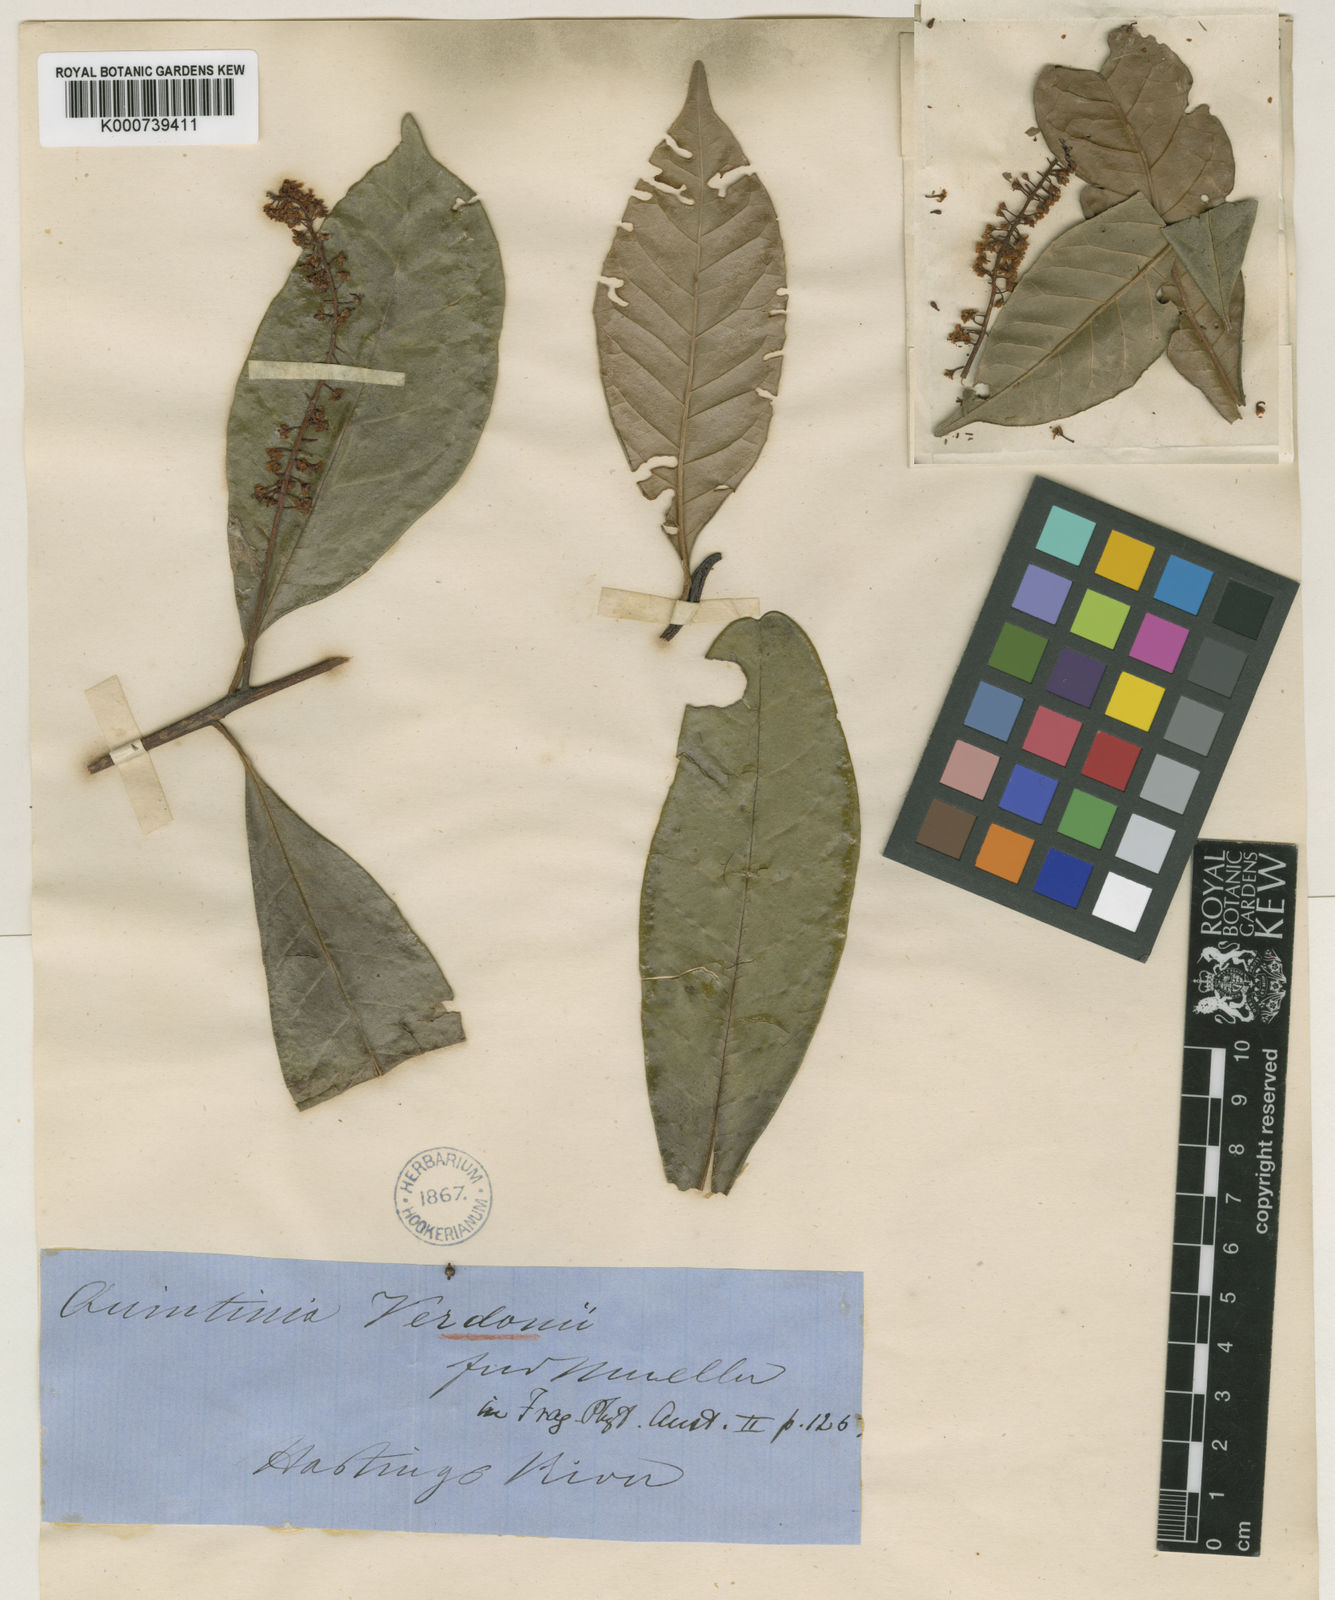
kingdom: Plantae
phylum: Tracheophyta
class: Magnoliopsida
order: Paracryphiales
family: Paracryphiaceae
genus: Quintinia
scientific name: Quintinia verdonii
